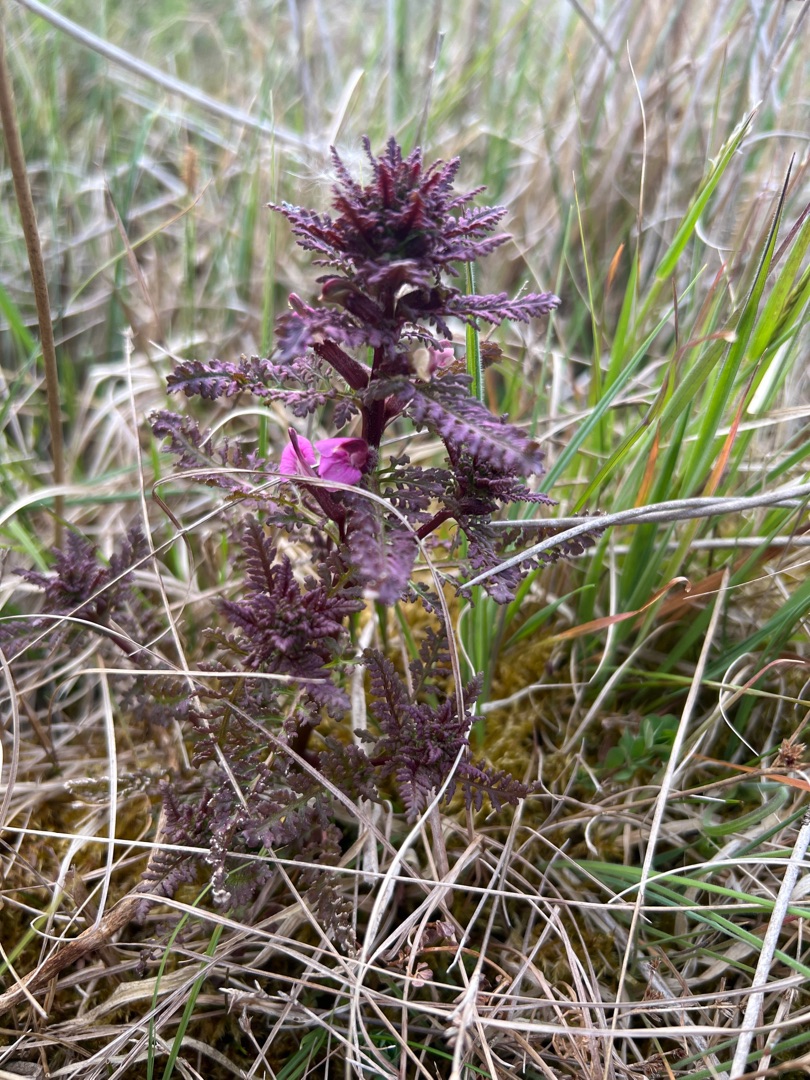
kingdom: Plantae
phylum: Tracheophyta
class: Magnoliopsida
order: Lamiales
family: Orobanchaceae
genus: Pedicularis
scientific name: Pedicularis palustris
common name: Eng-troldurt
